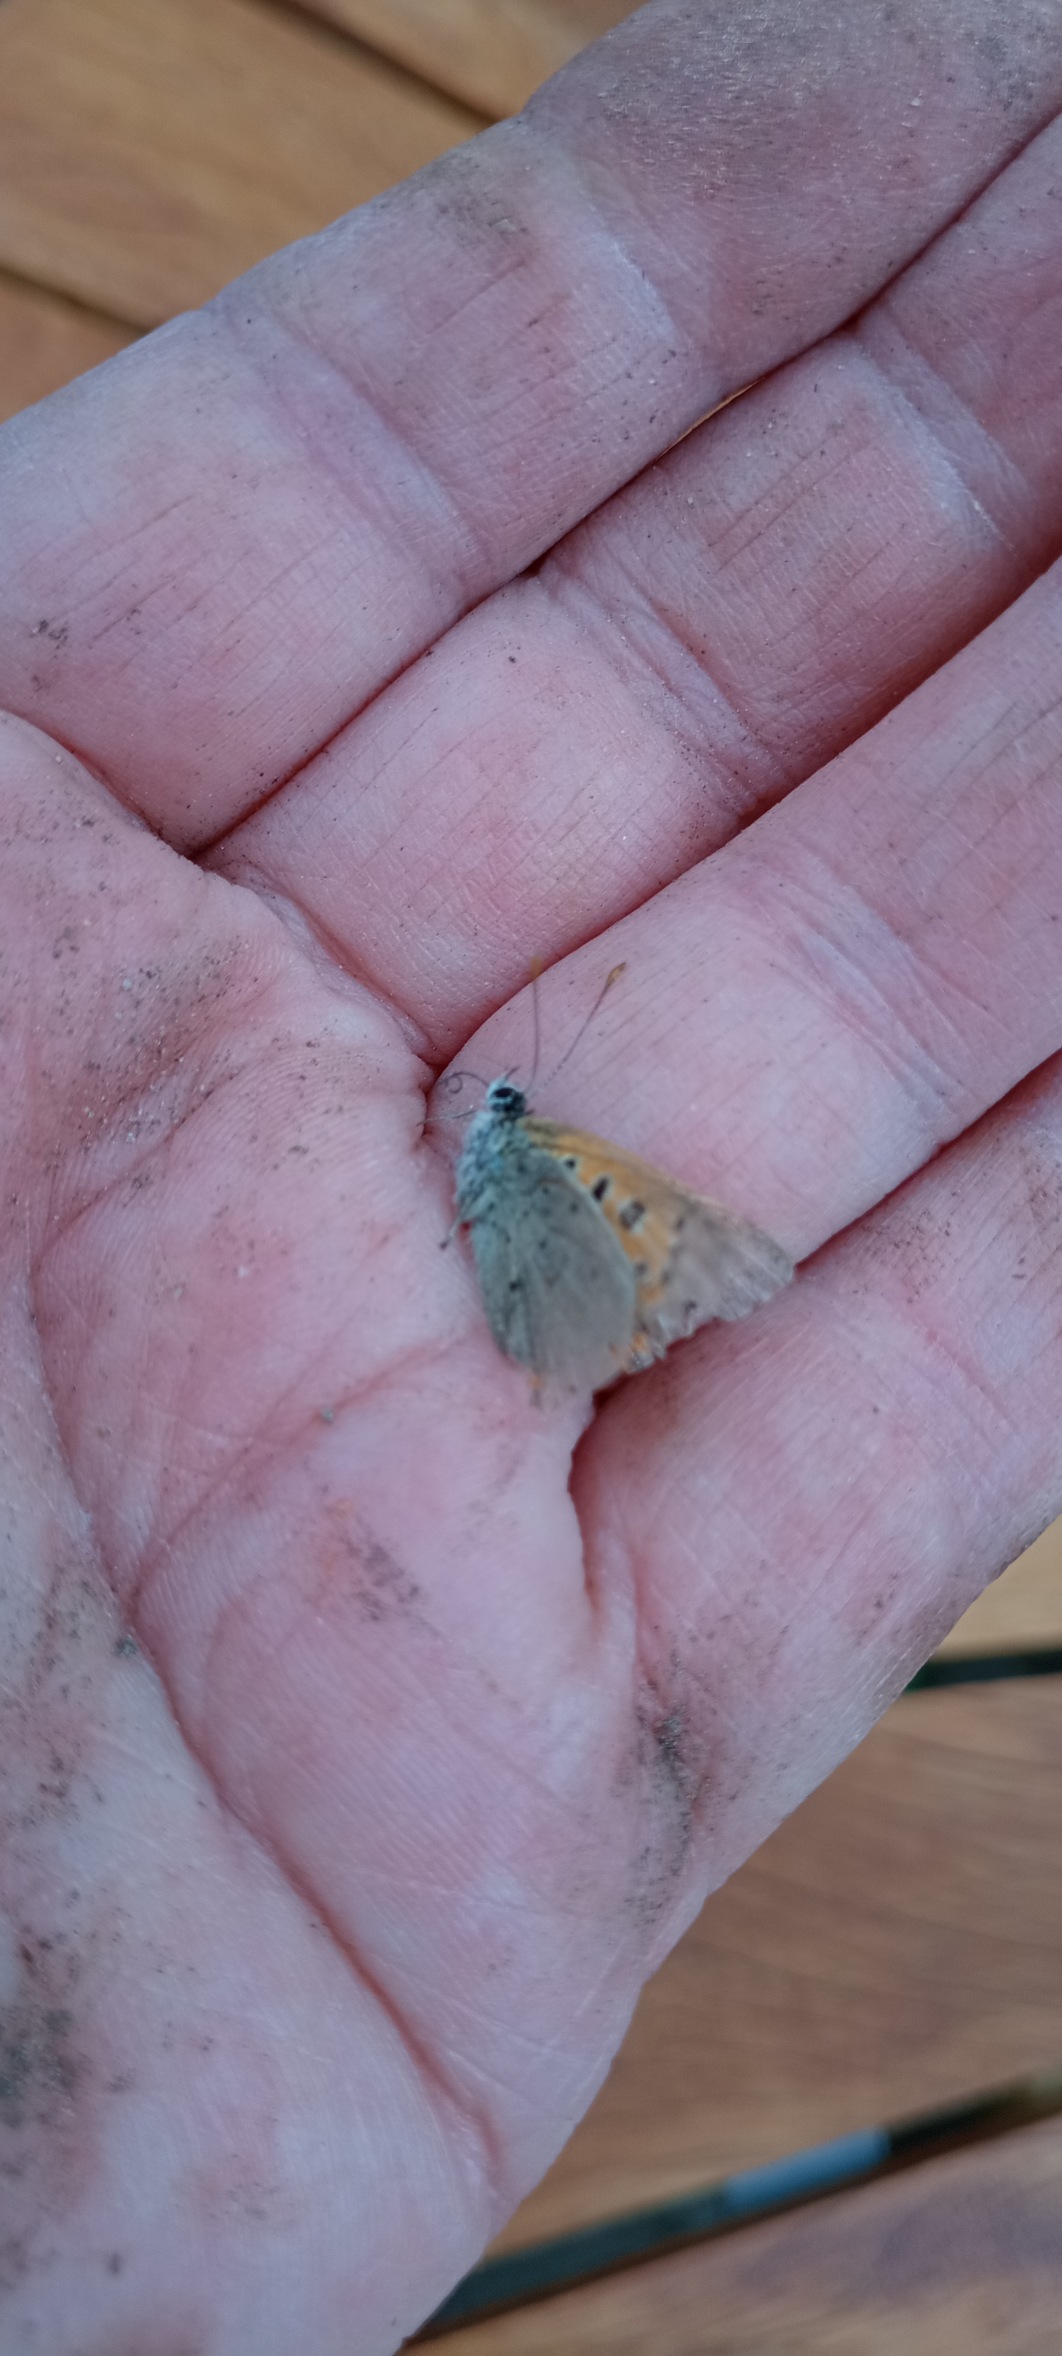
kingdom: Animalia
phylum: Arthropoda
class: Insecta
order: Lepidoptera
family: Lycaenidae
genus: Lycaena
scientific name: Lycaena phlaeas
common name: Lille ildfugl
